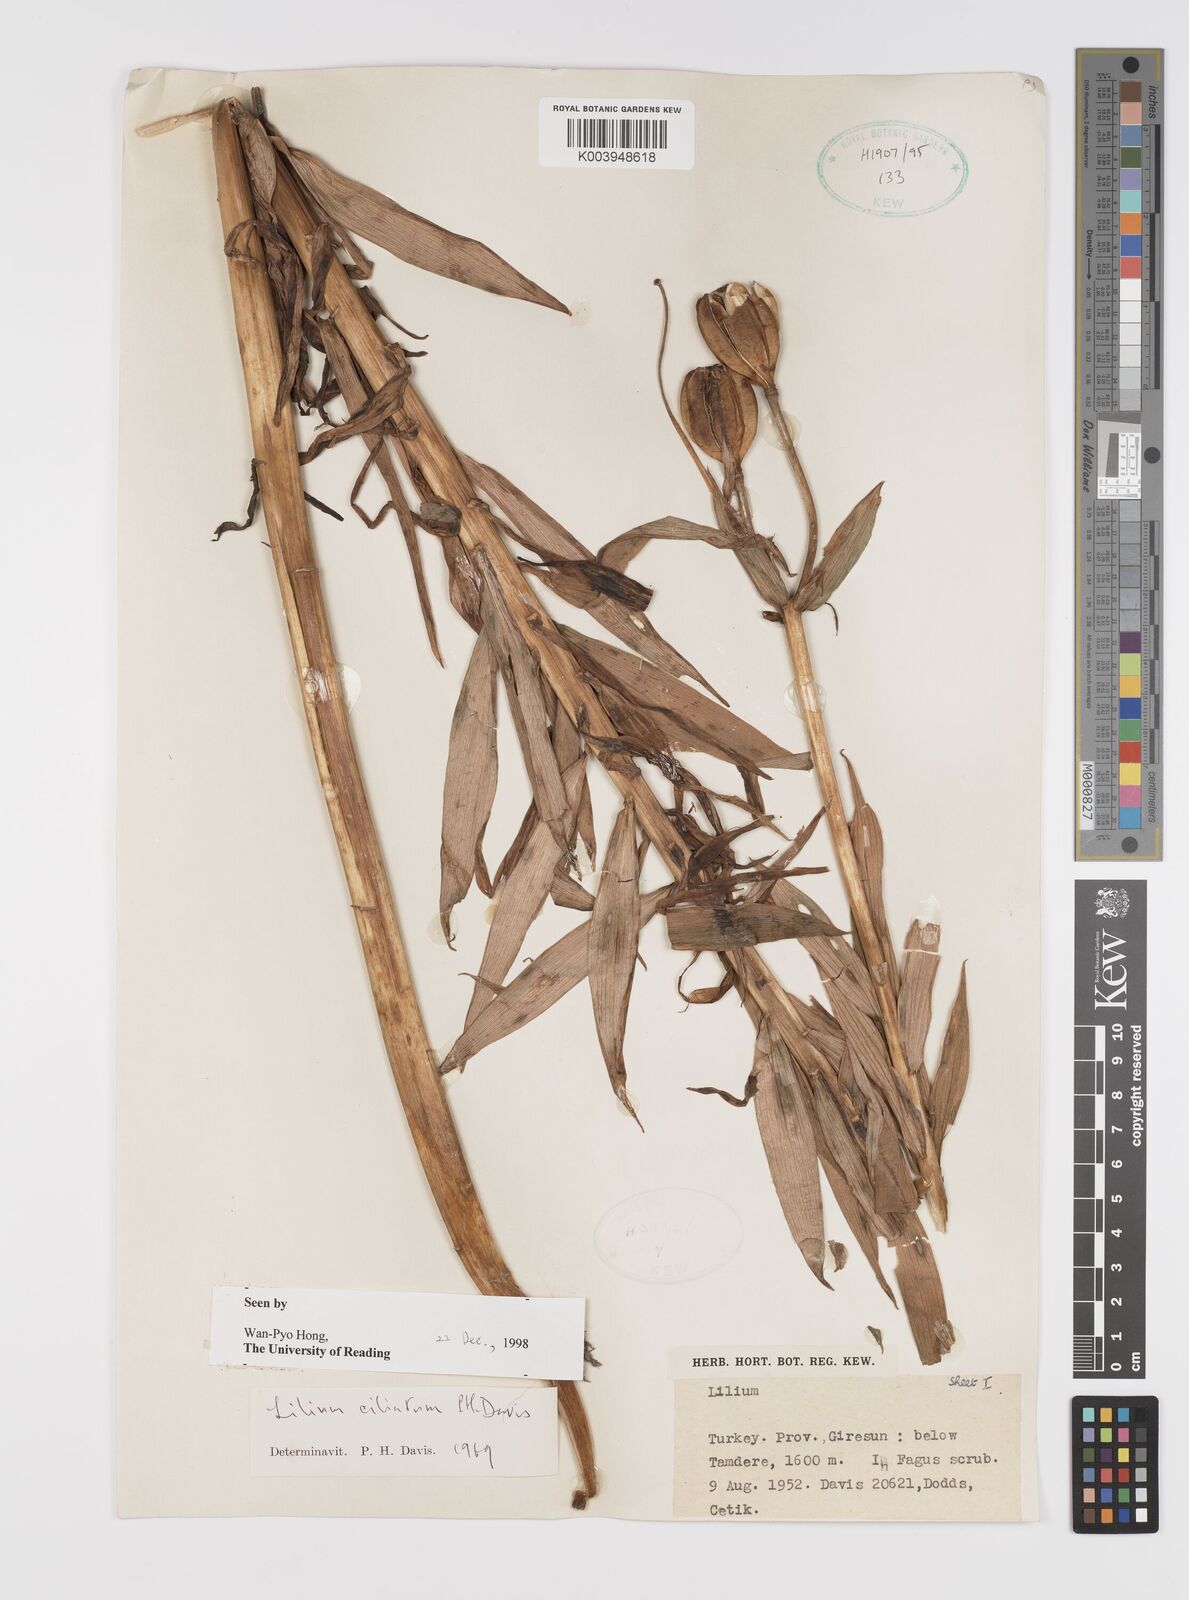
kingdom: Plantae
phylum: Tracheophyta
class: Liliopsida
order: Liliales
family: Liliaceae
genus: Lilium
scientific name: Lilium ciliatum
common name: Ciliate lily
